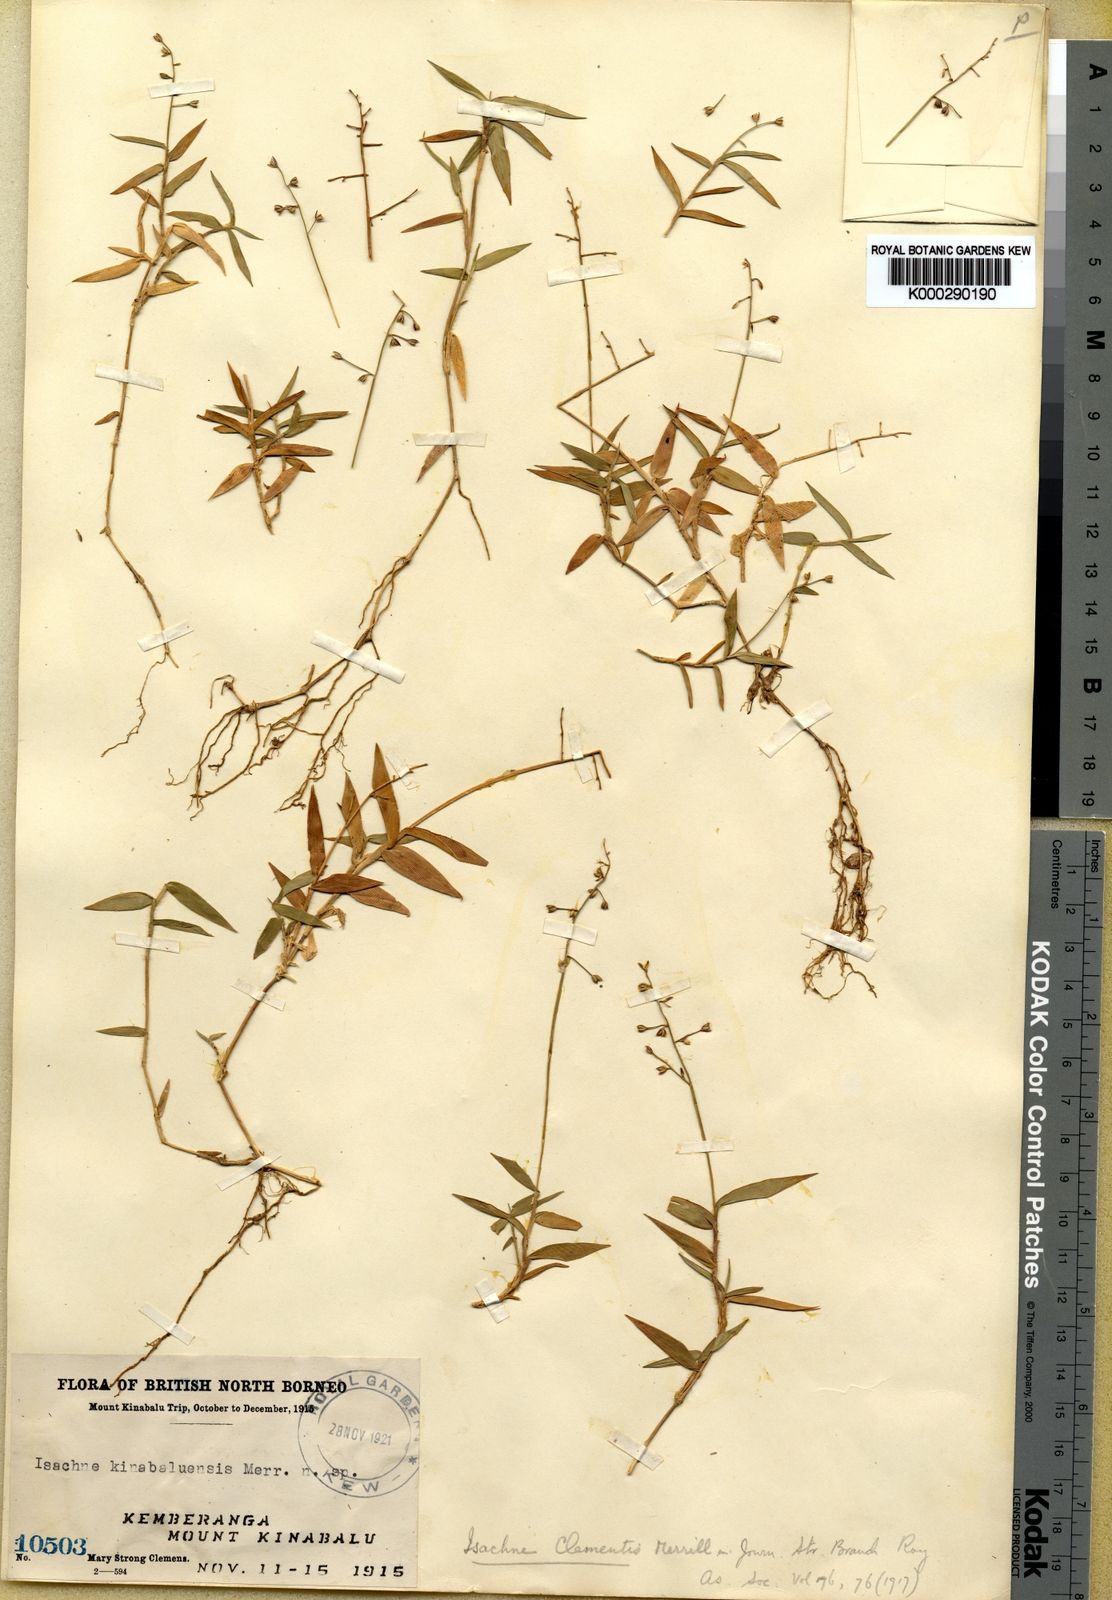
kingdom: Plantae
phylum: Tracheophyta
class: Liliopsida
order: Poales
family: Poaceae
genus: Isachne
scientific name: Isachne clementis
